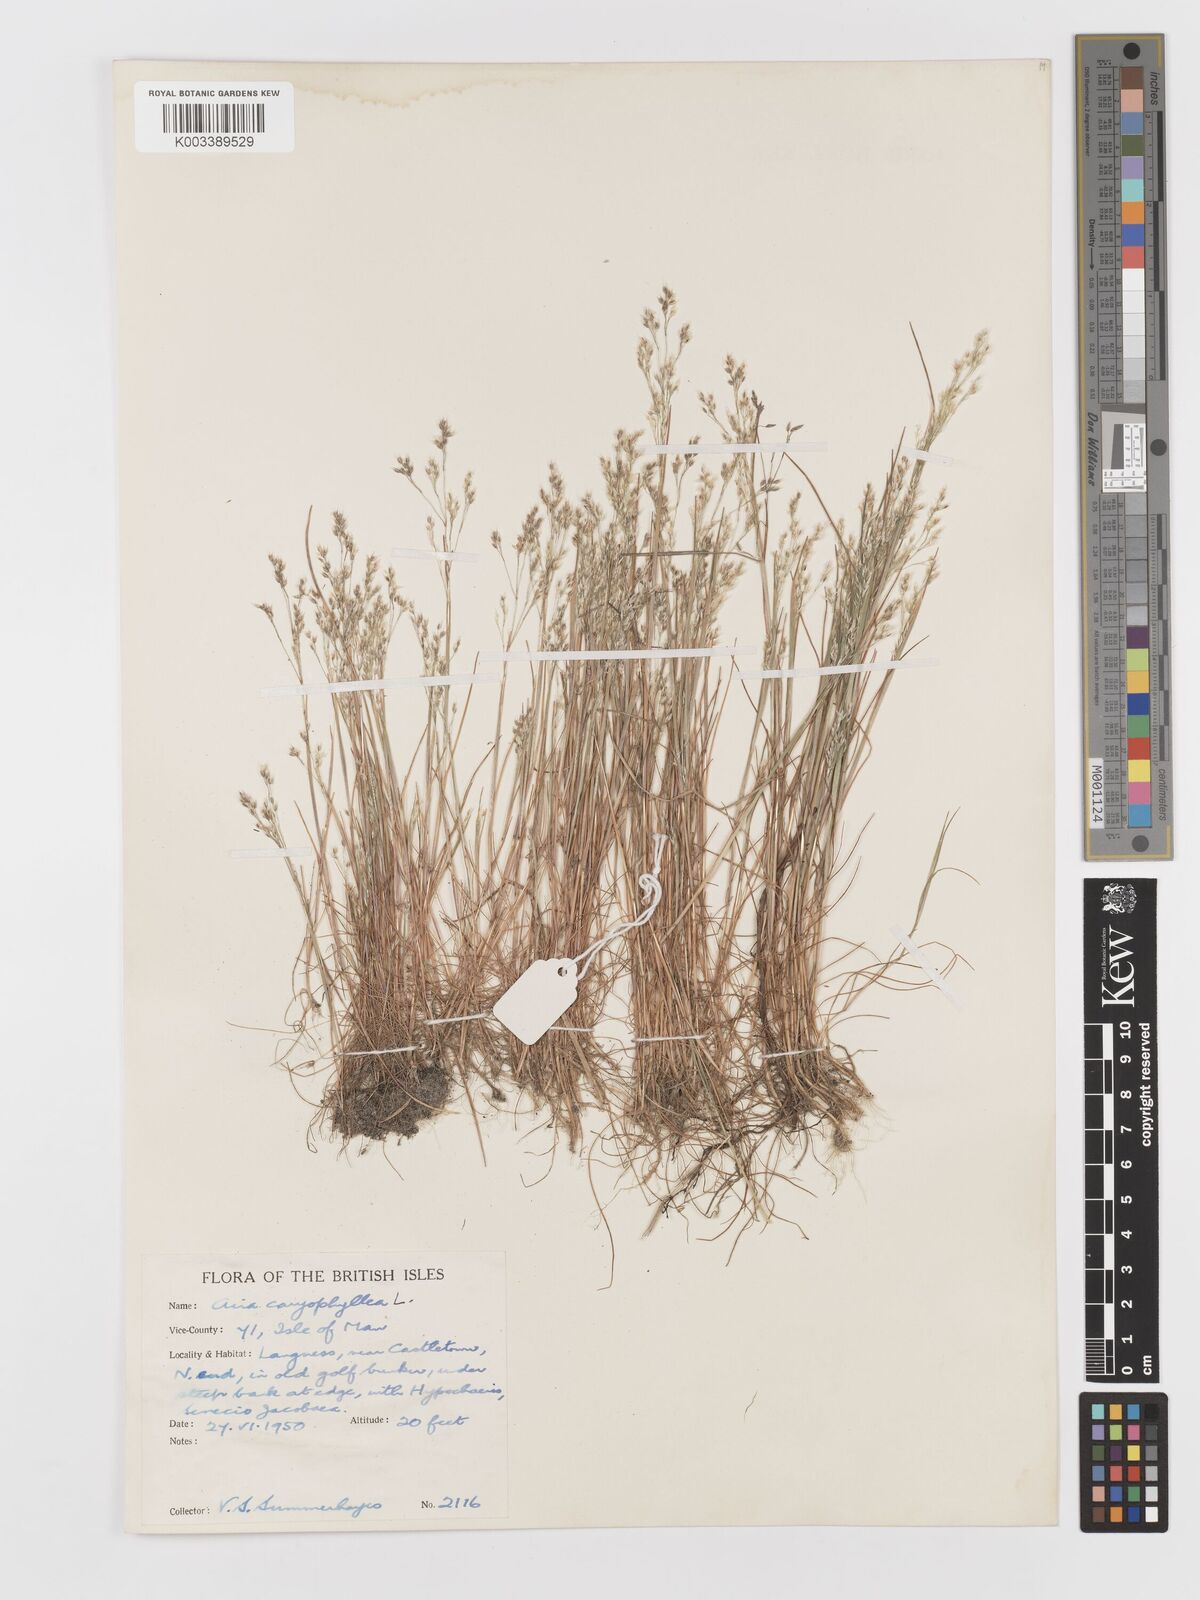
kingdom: Plantae
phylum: Tracheophyta
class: Liliopsida
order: Poales
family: Poaceae
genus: Aira
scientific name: Aira caryophyllea
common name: Silver hairgrass
